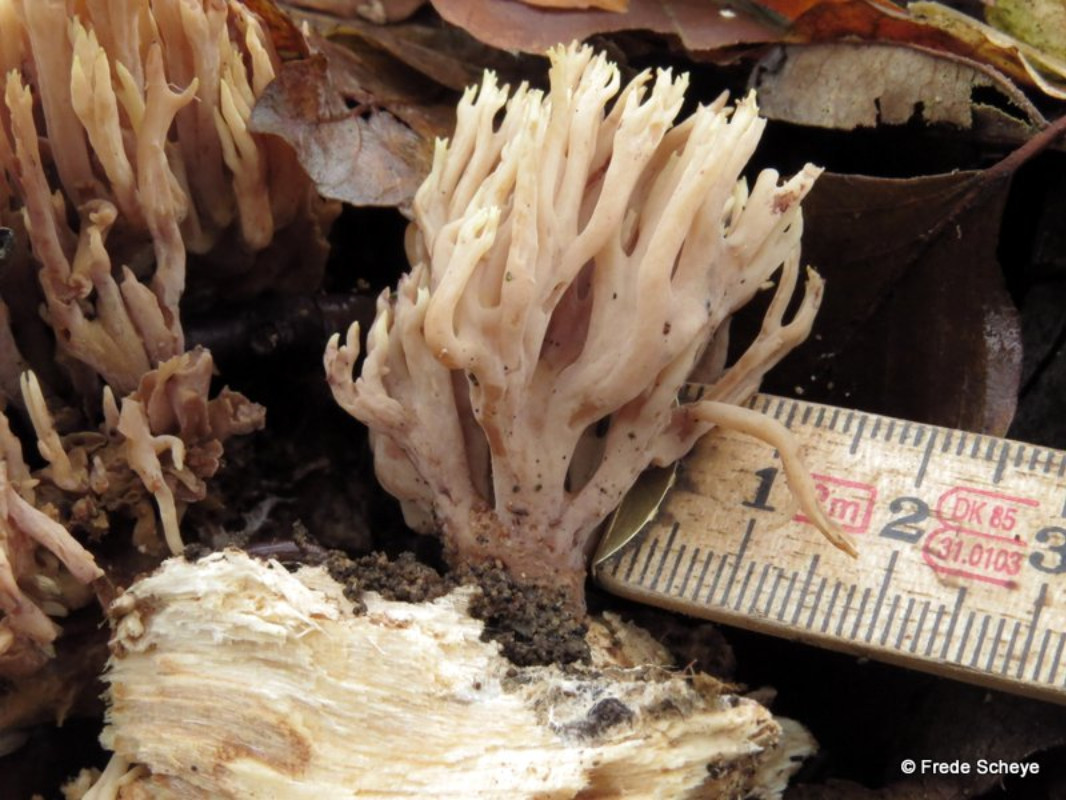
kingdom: Fungi
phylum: Basidiomycota
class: Agaricomycetes
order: Gomphales
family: Gomphaceae
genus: Ramaria
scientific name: Ramaria stricta
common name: rank koralsvamp
